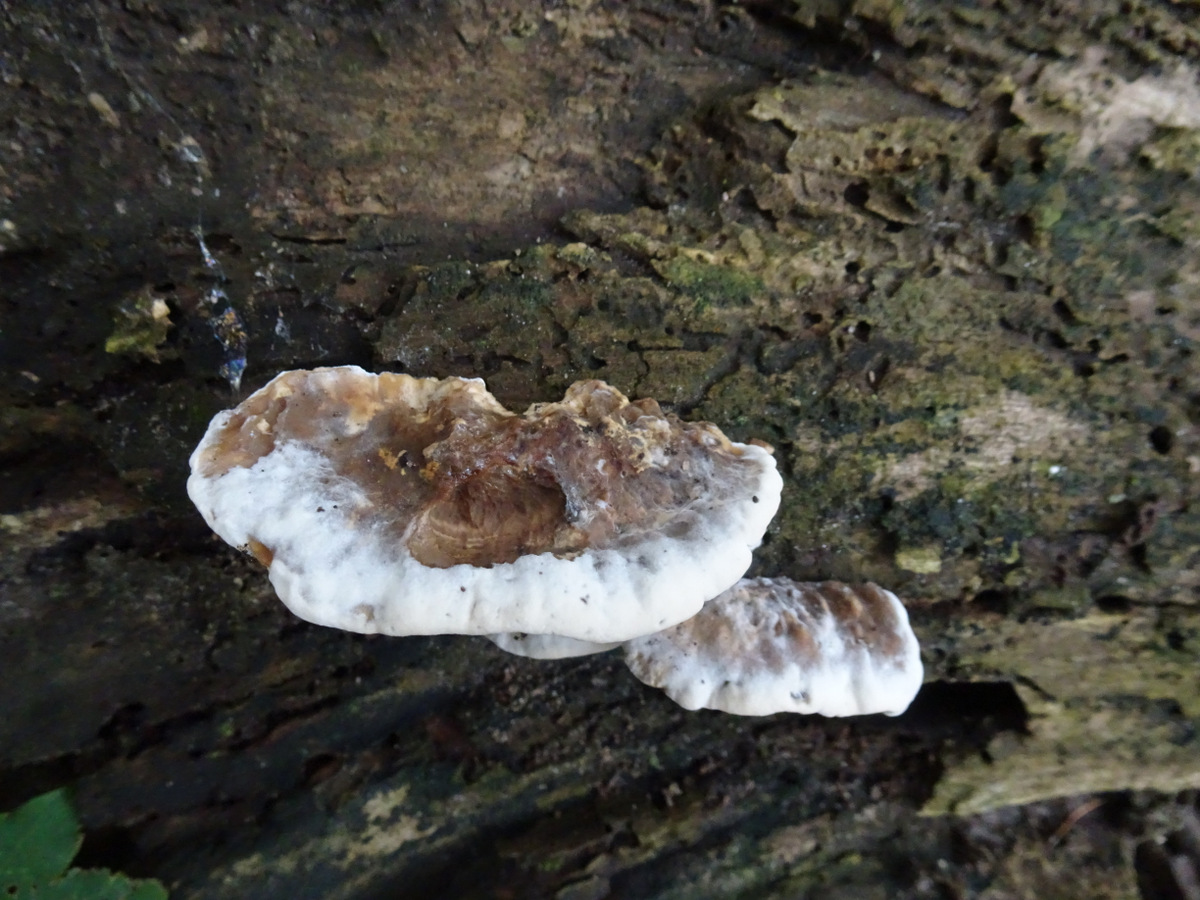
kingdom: Fungi
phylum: Basidiomycota
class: Agaricomycetes
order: Polyporales
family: Phanerochaetaceae
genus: Bjerkandera
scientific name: Bjerkandera fumosa
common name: grågul sodporesvamp
